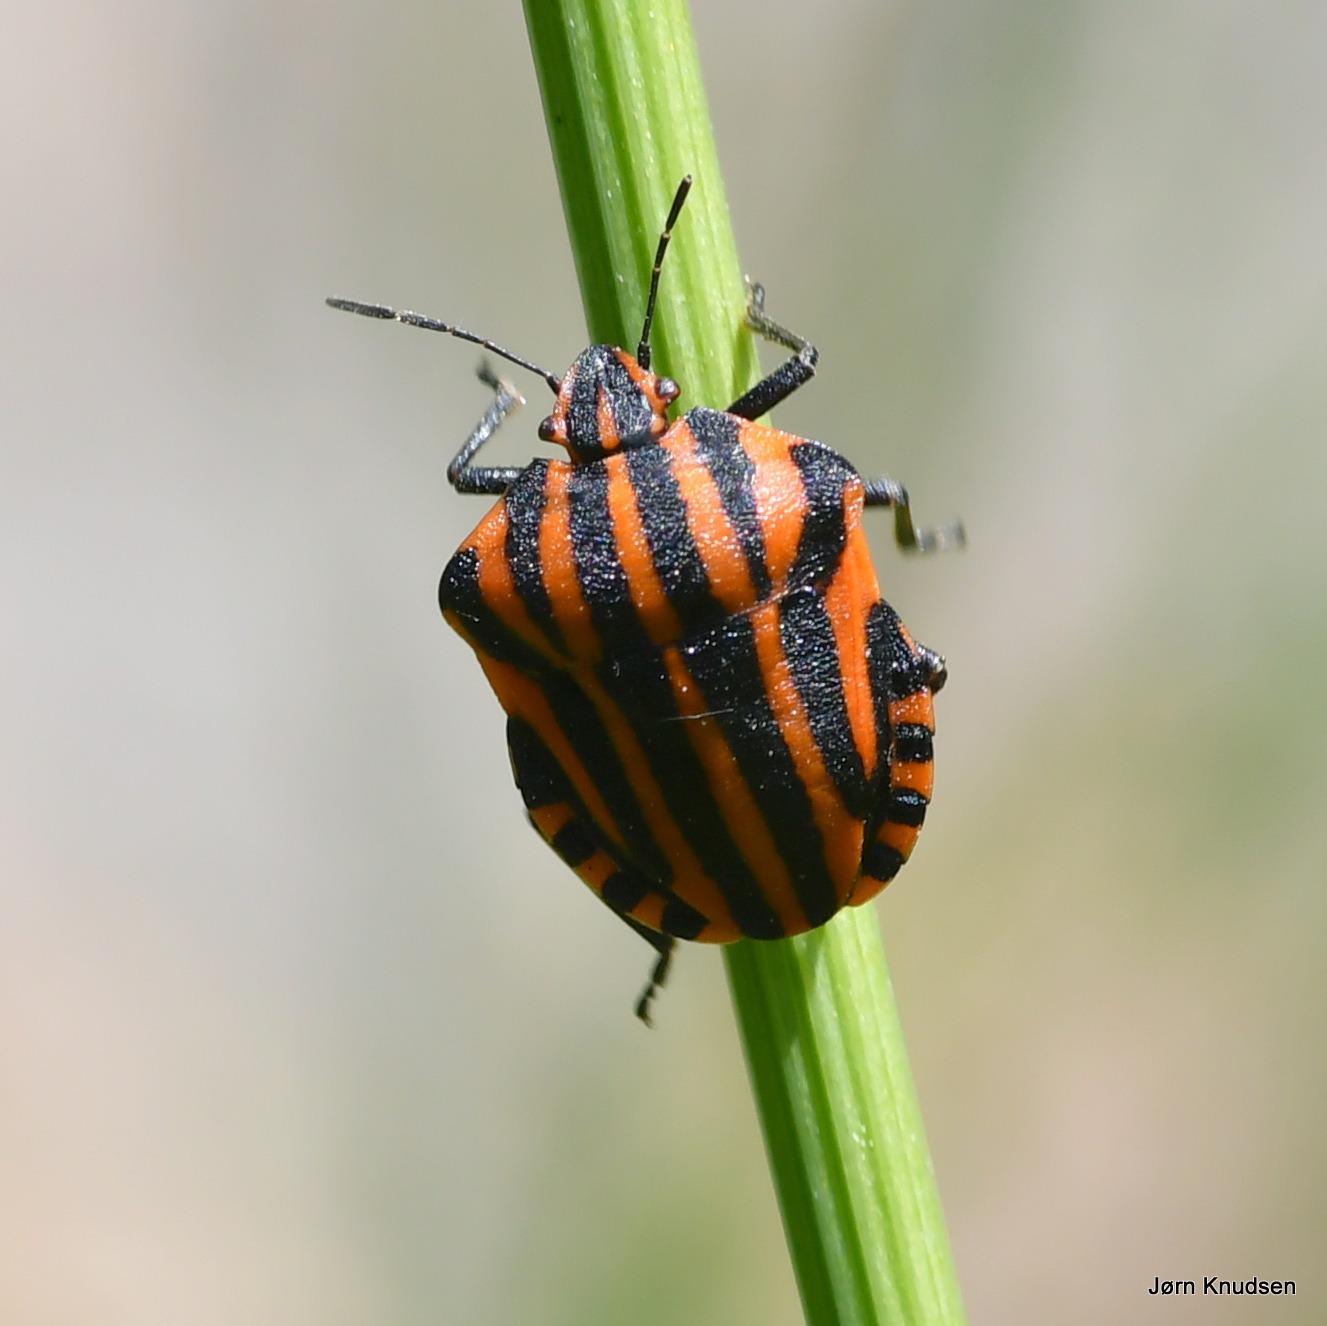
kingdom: Animalia
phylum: Arthropoda
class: Insecta
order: Hemiptera
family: Pentatomidae
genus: Graphosoma
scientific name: Graphosoma italicum
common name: Stribetæge
